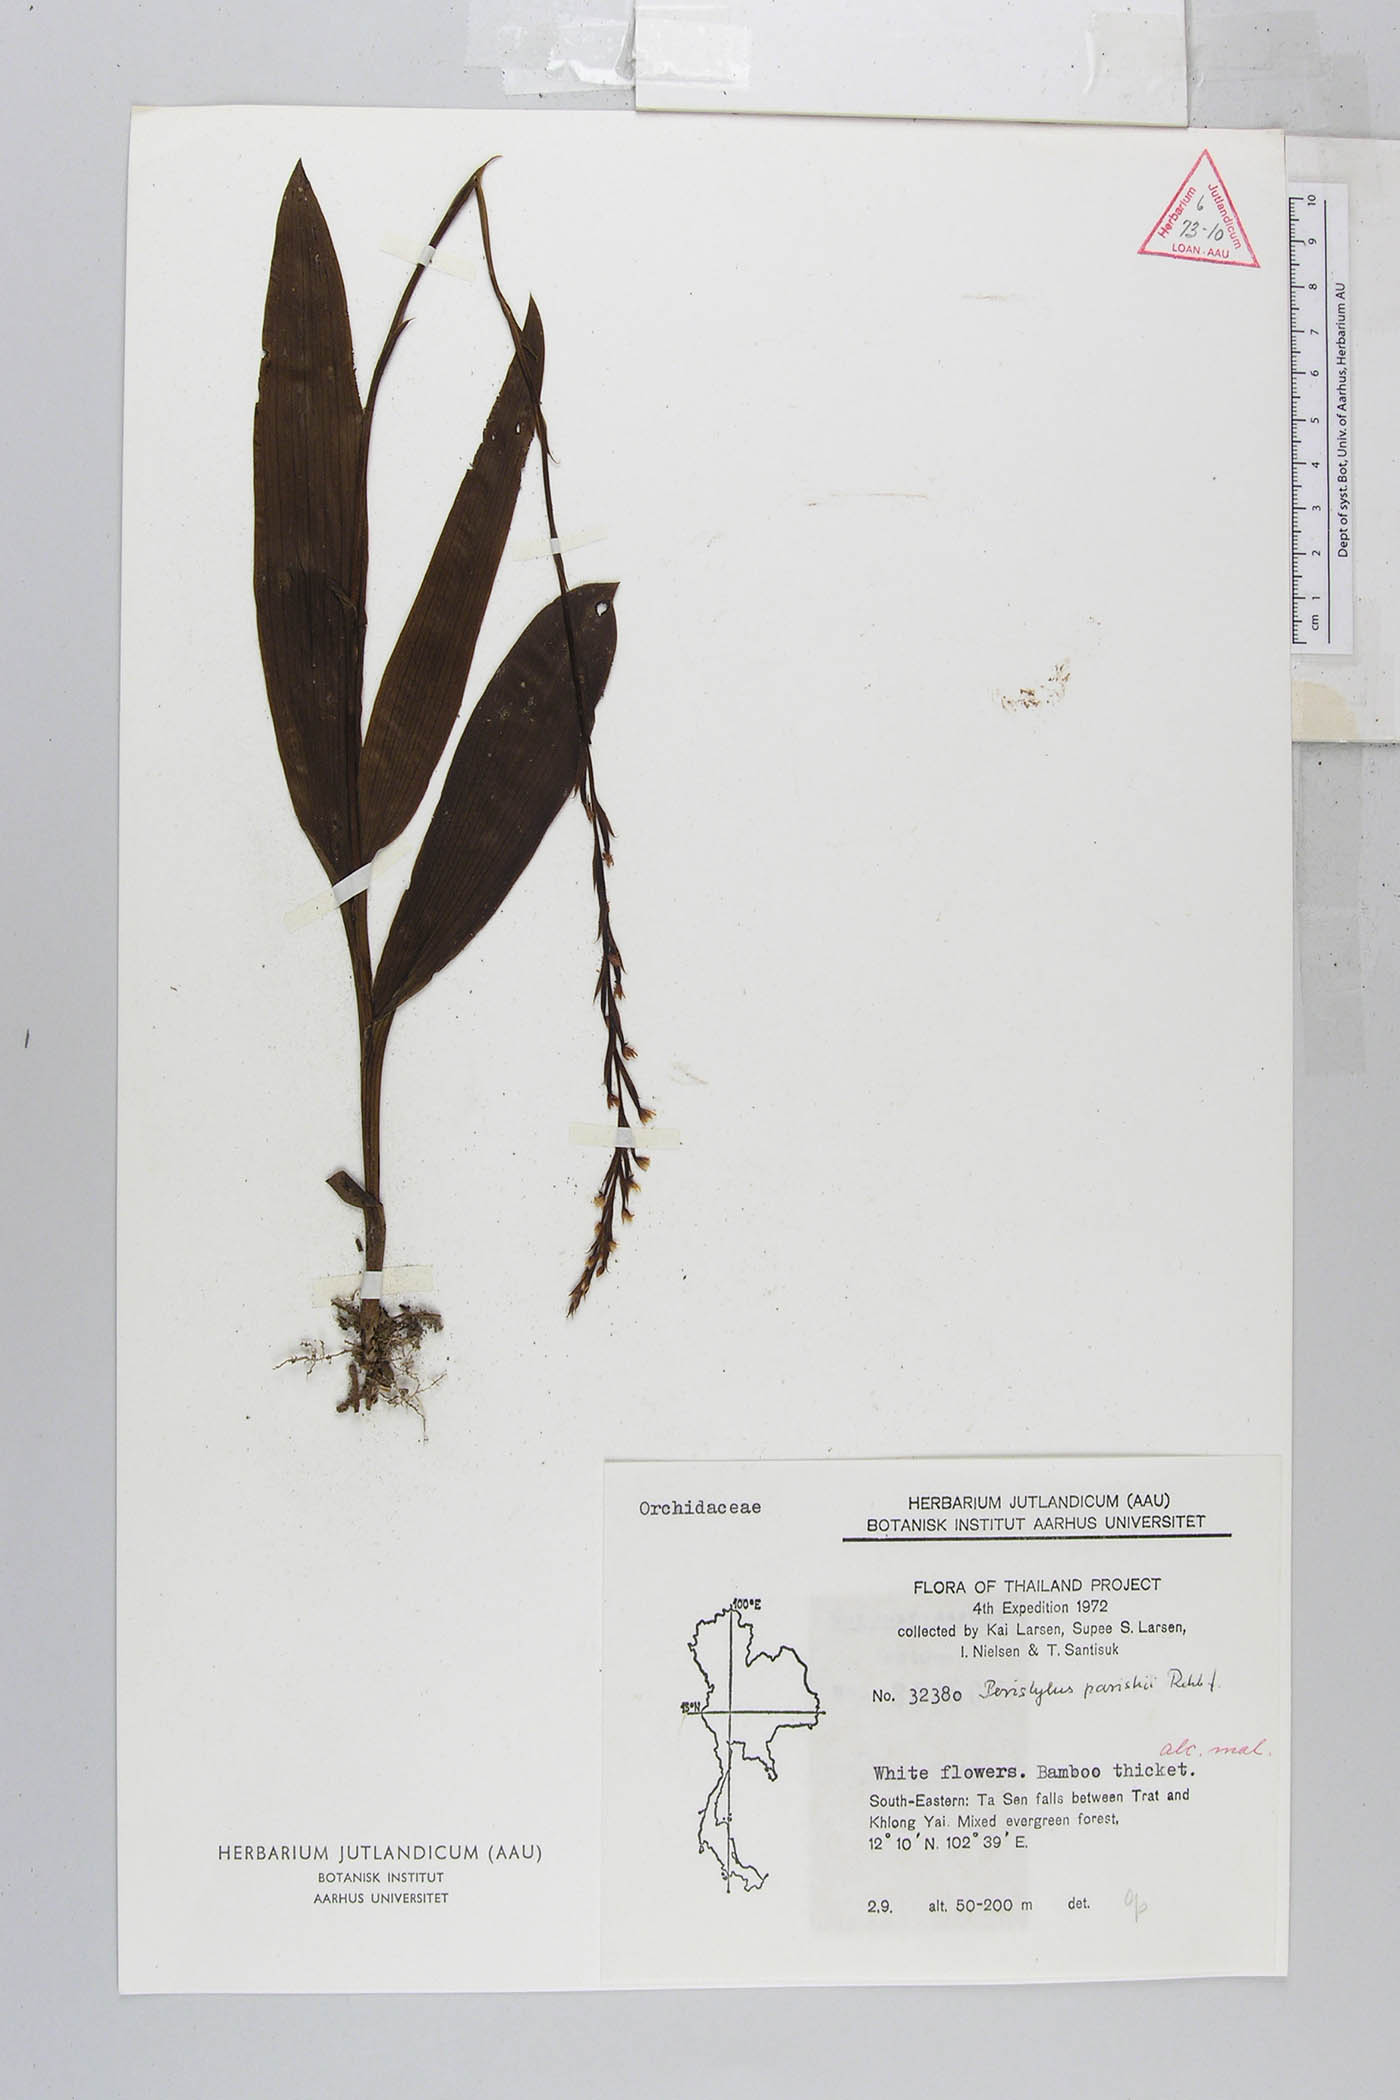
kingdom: Plantae
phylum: Tracheophyta
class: Liliopsida
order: Asparagales
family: Orchidaceae
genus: Peristylus
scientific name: Peristylus parishii
